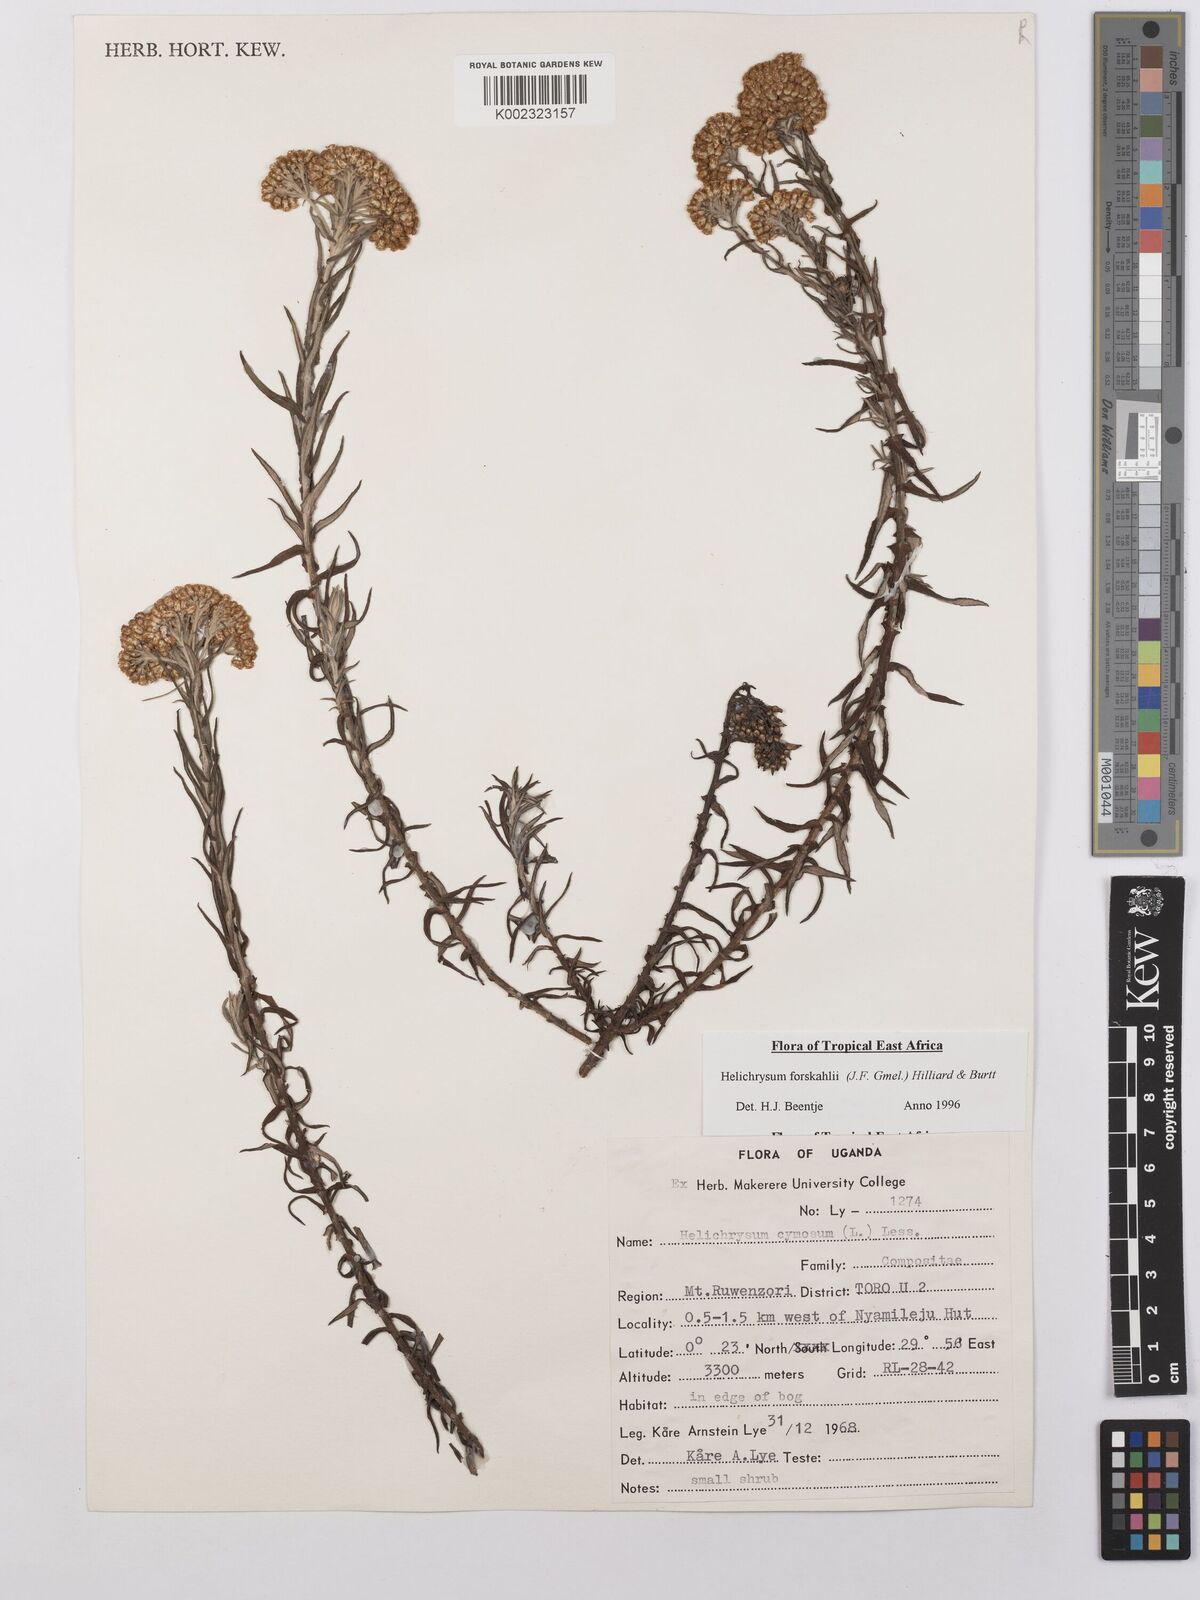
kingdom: Plantae
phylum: Tracheophyta
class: Magnoliopsida
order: Asterales
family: Asteraceae
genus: Helichrysum
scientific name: Helichrysum forskahlii
